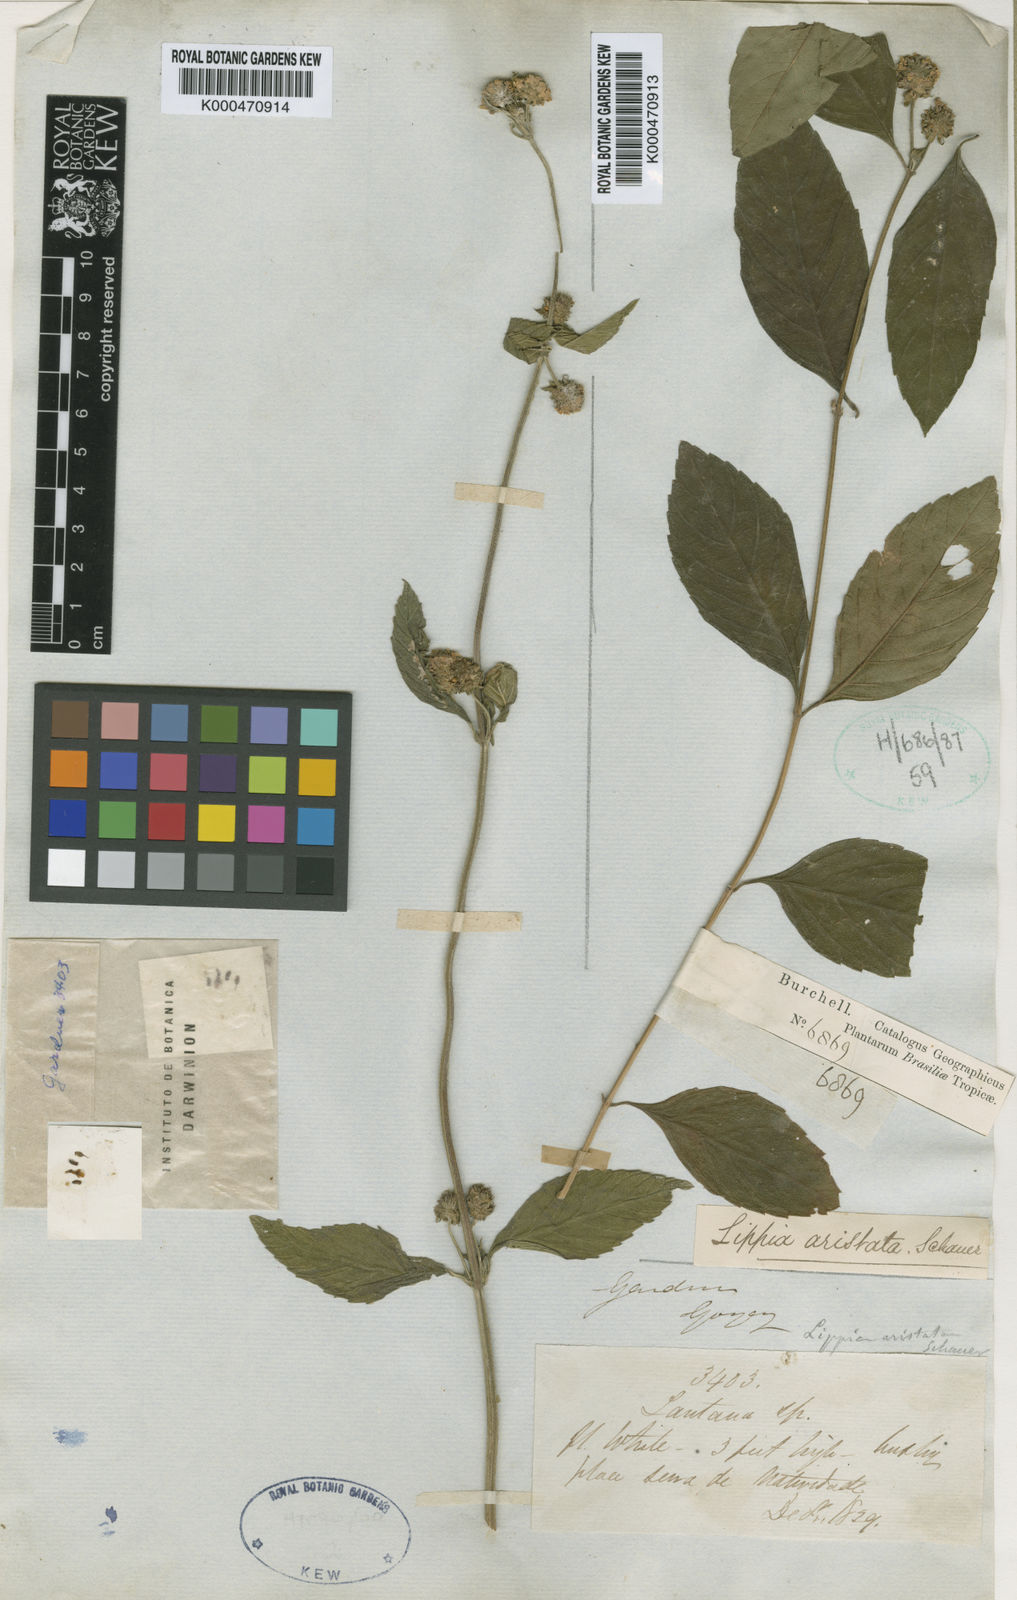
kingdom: Plantae
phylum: Tracheophyta
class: Magnoliopsida
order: Lamiales
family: Verbenaceae
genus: Lippia
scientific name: Lippia aristata
